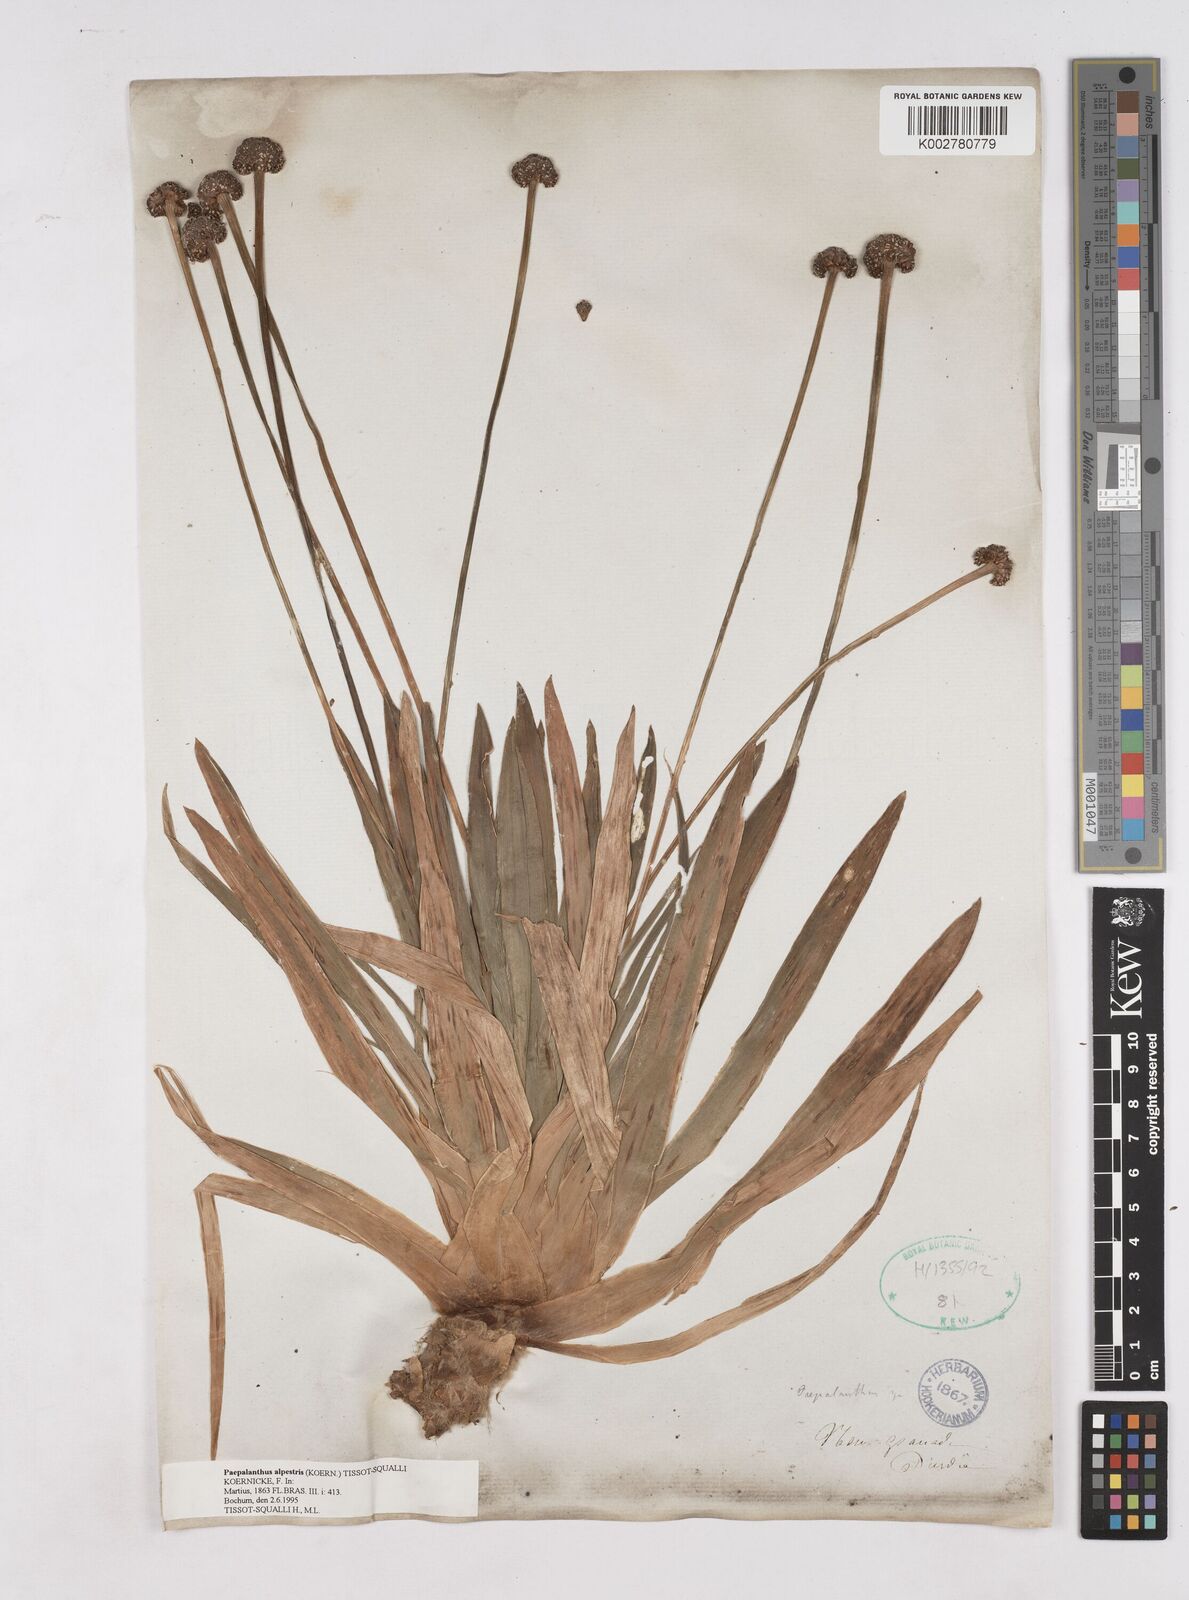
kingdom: Plantae
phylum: Tracheophyta
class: Liliopsida
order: Poales
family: Eriocaulaceae
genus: Paepalanthus
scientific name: Paepalanthus alpestris
